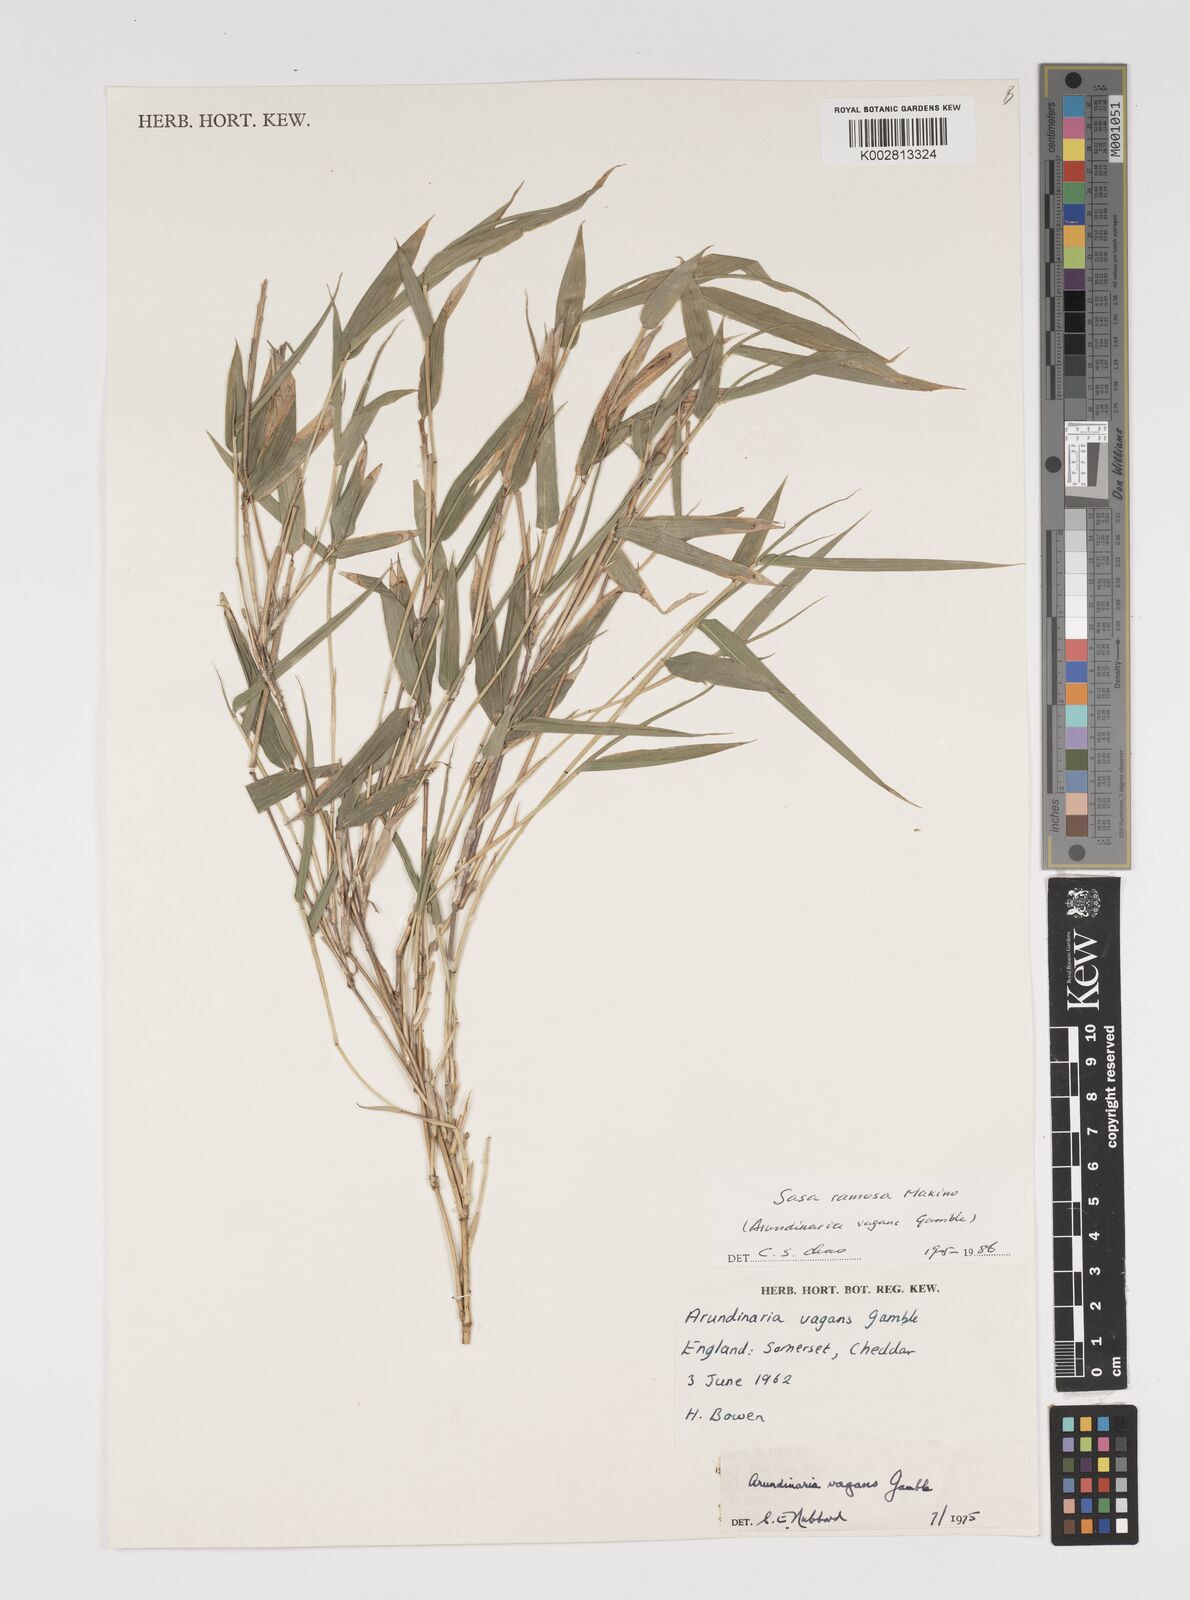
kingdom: Plantae
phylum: Tracheophyta
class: Liliopsida
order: Poales
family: Poaceae
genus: Sasaella
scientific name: Sasaella ramosa
